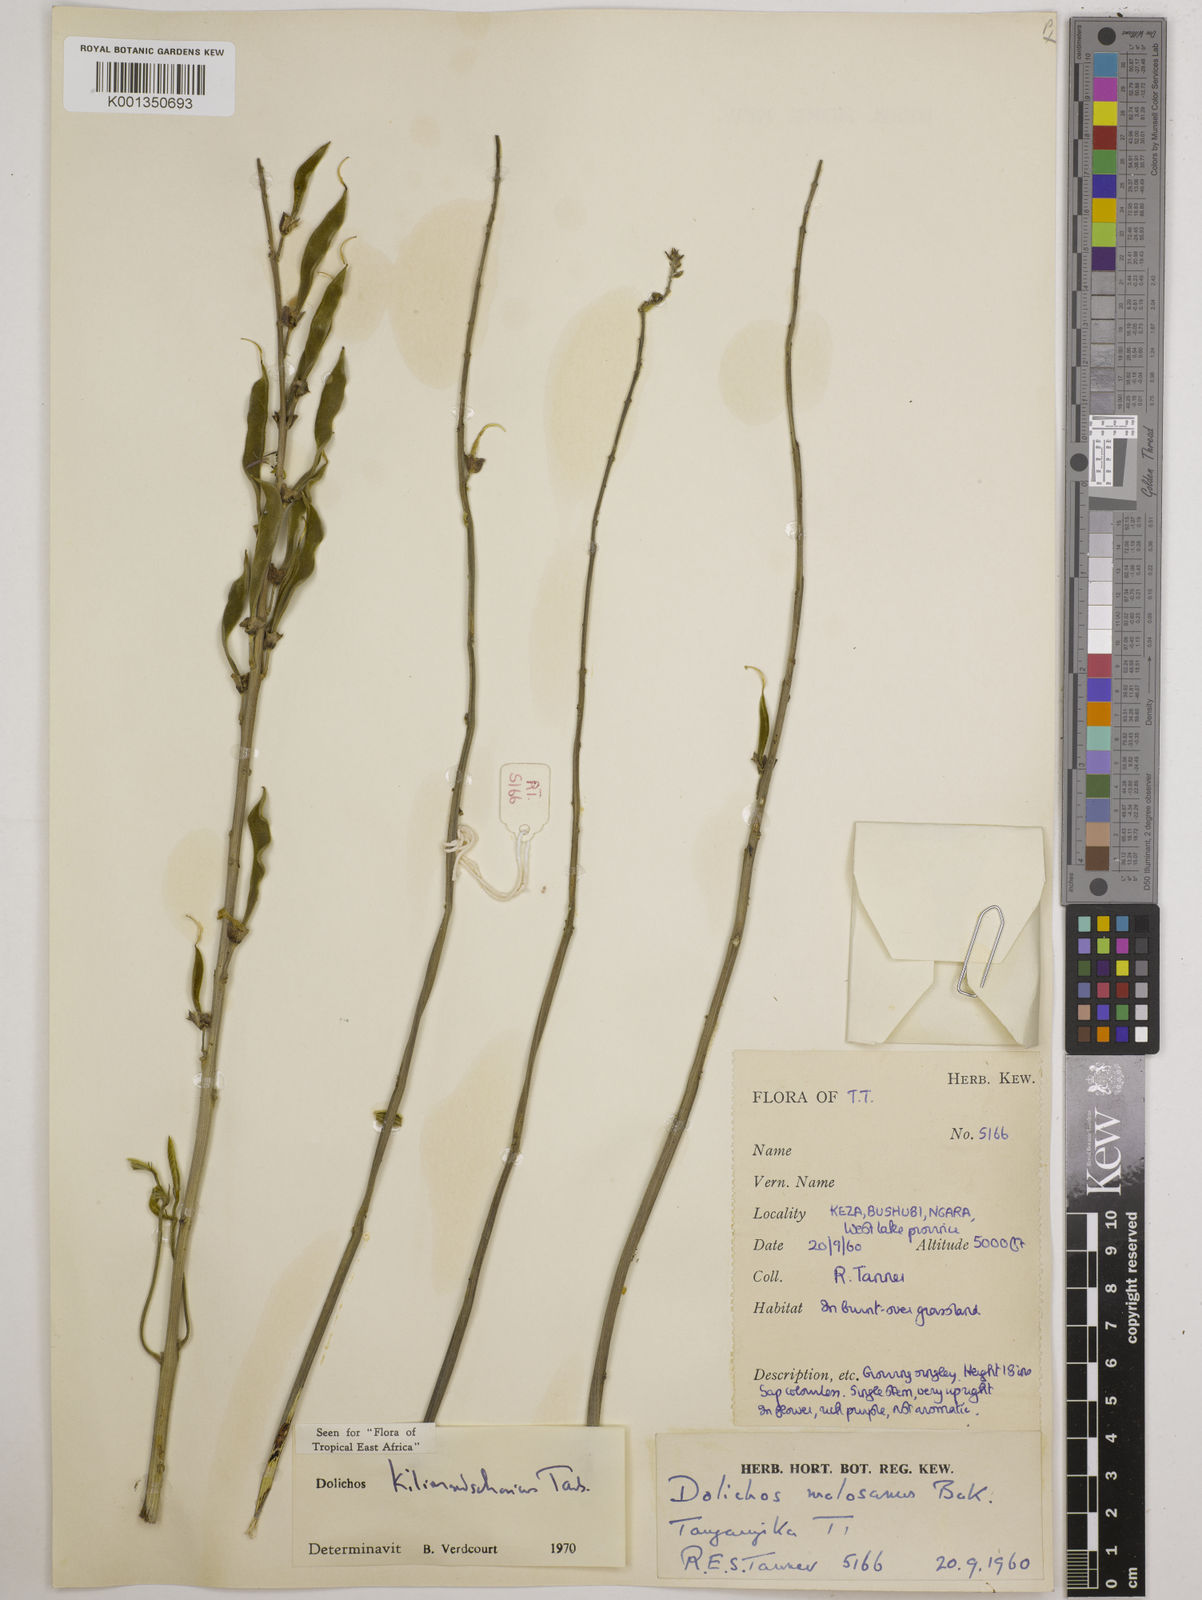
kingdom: Plantae
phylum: Tracheophyta
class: Magnoliopsida
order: Fabales
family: Fabaceae
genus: Dolichos
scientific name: Dolichos kilimandscharicus
